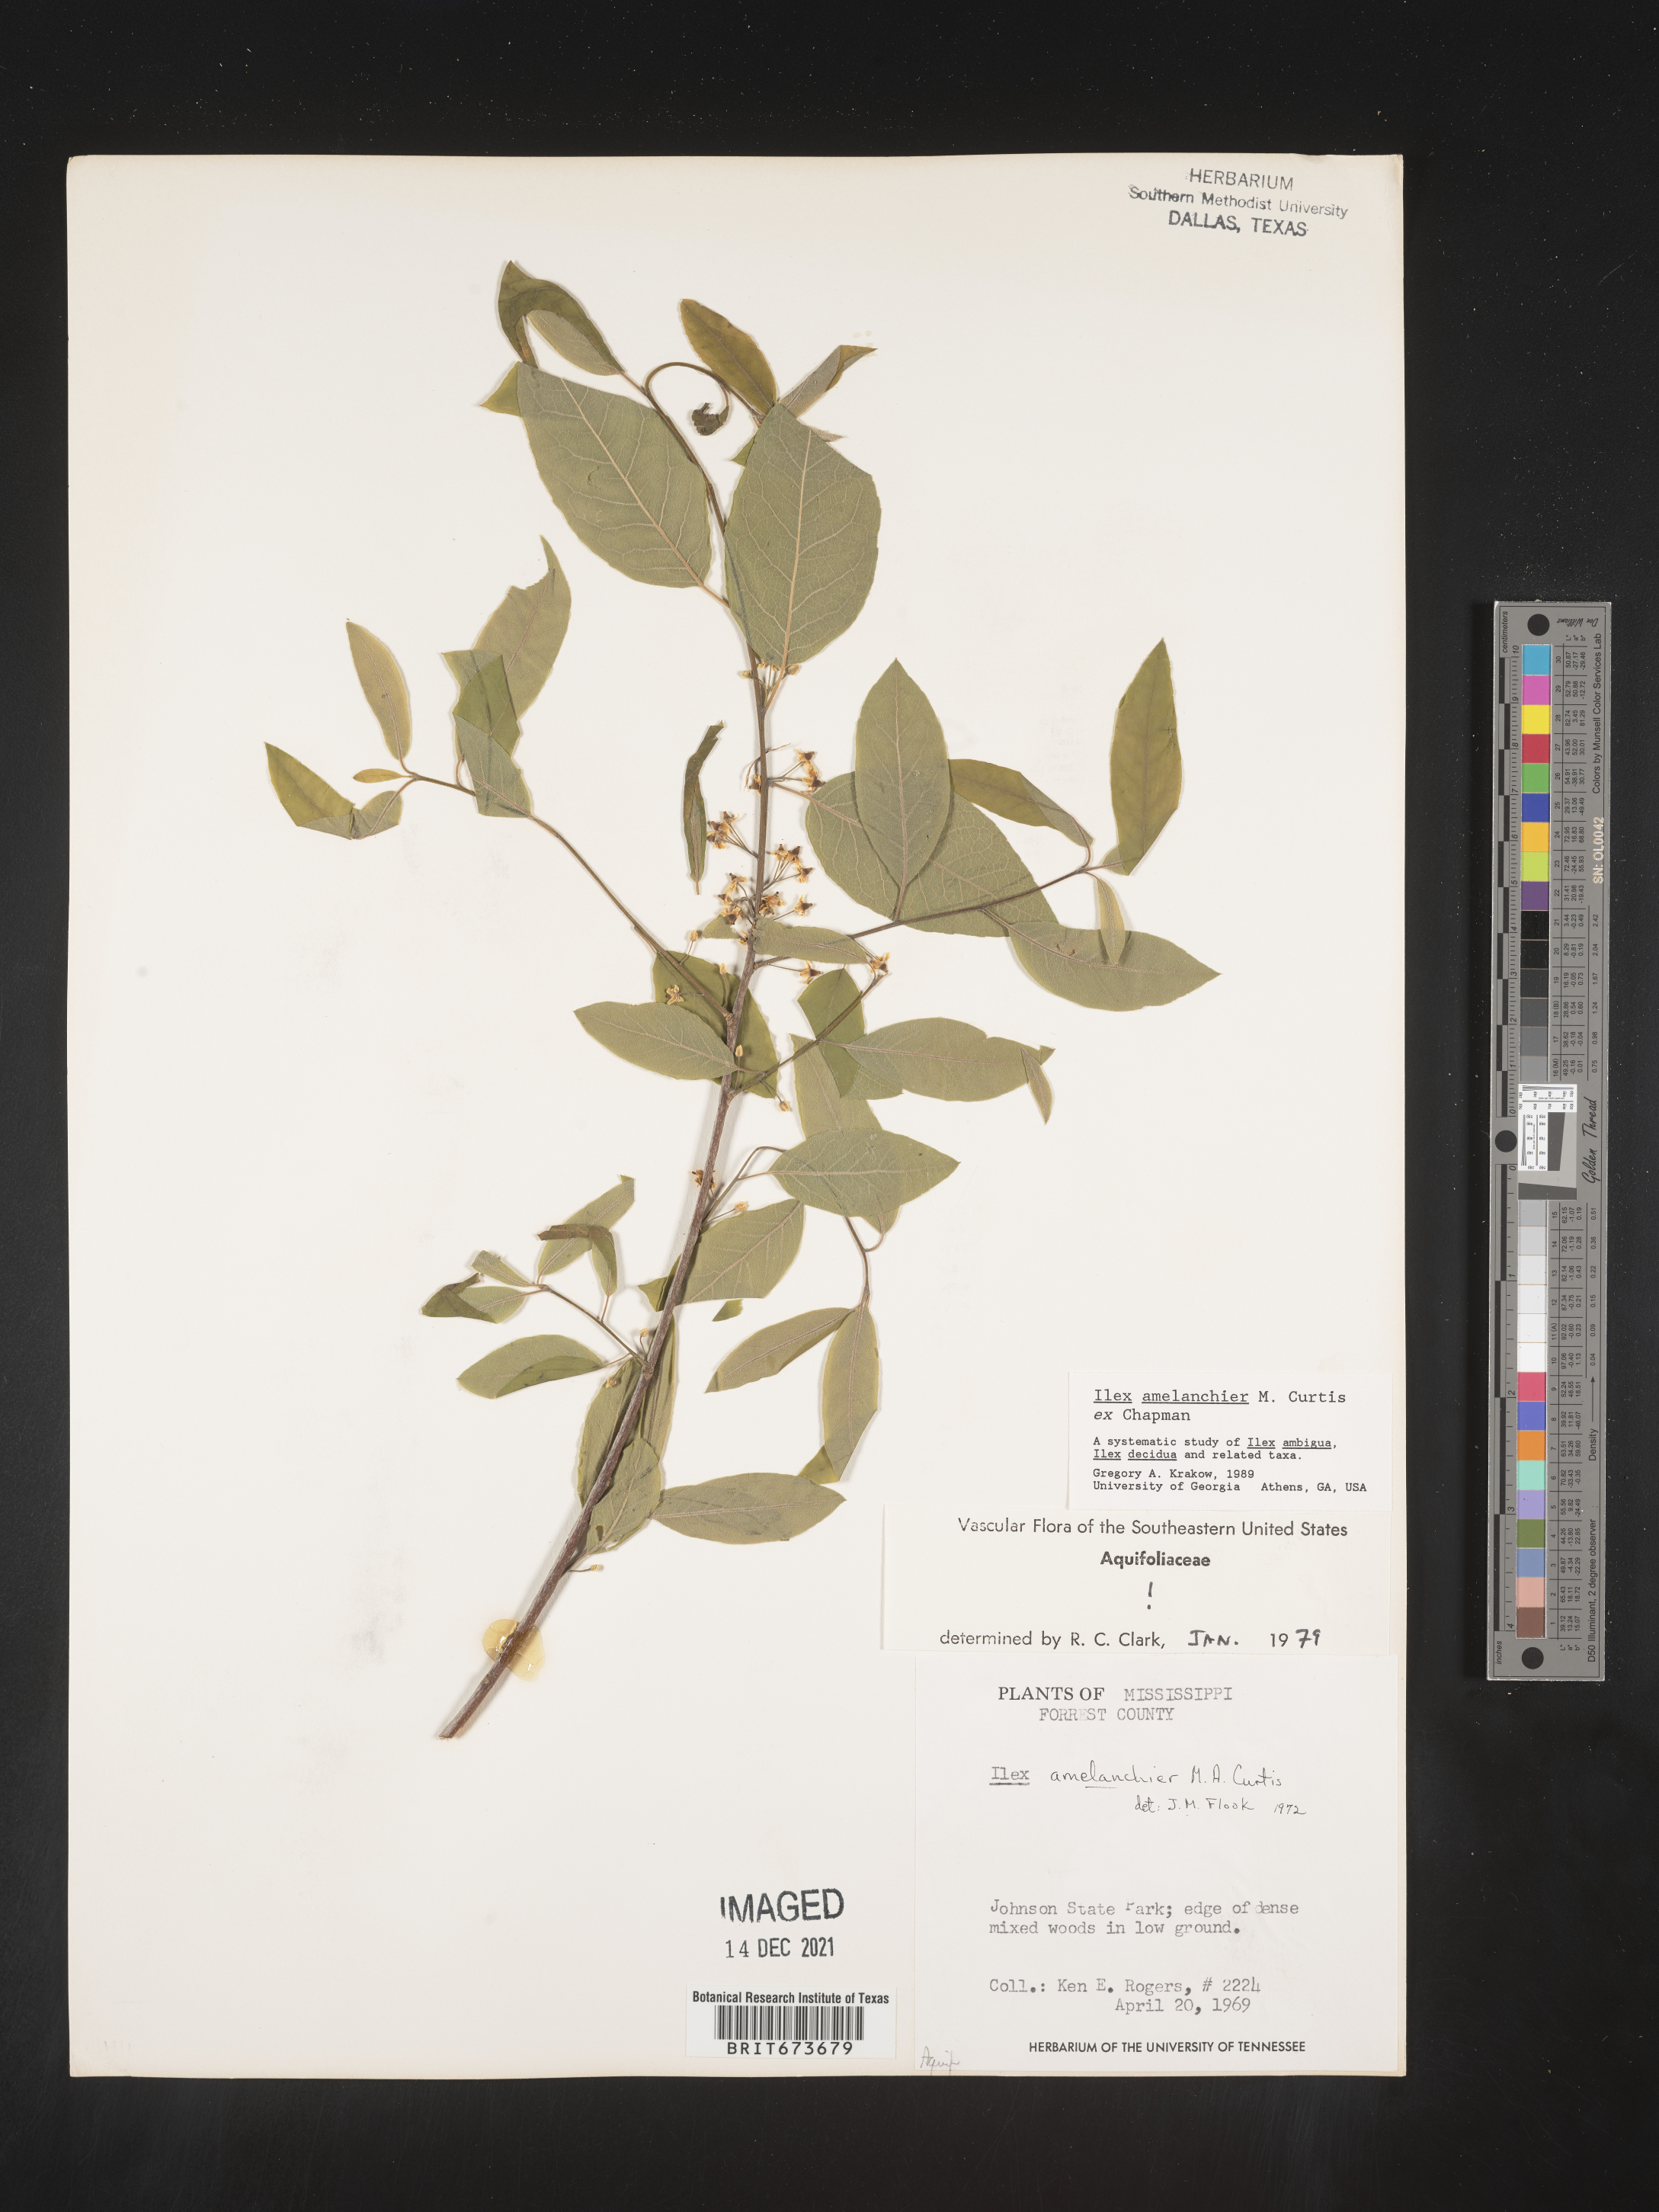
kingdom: Plantae
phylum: Tracheophyta
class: Magnoliopsida
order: Aquifoliales
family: Aquifoliaceae
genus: Ilex
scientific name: Ilex amelanchier
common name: Sarvis holly
